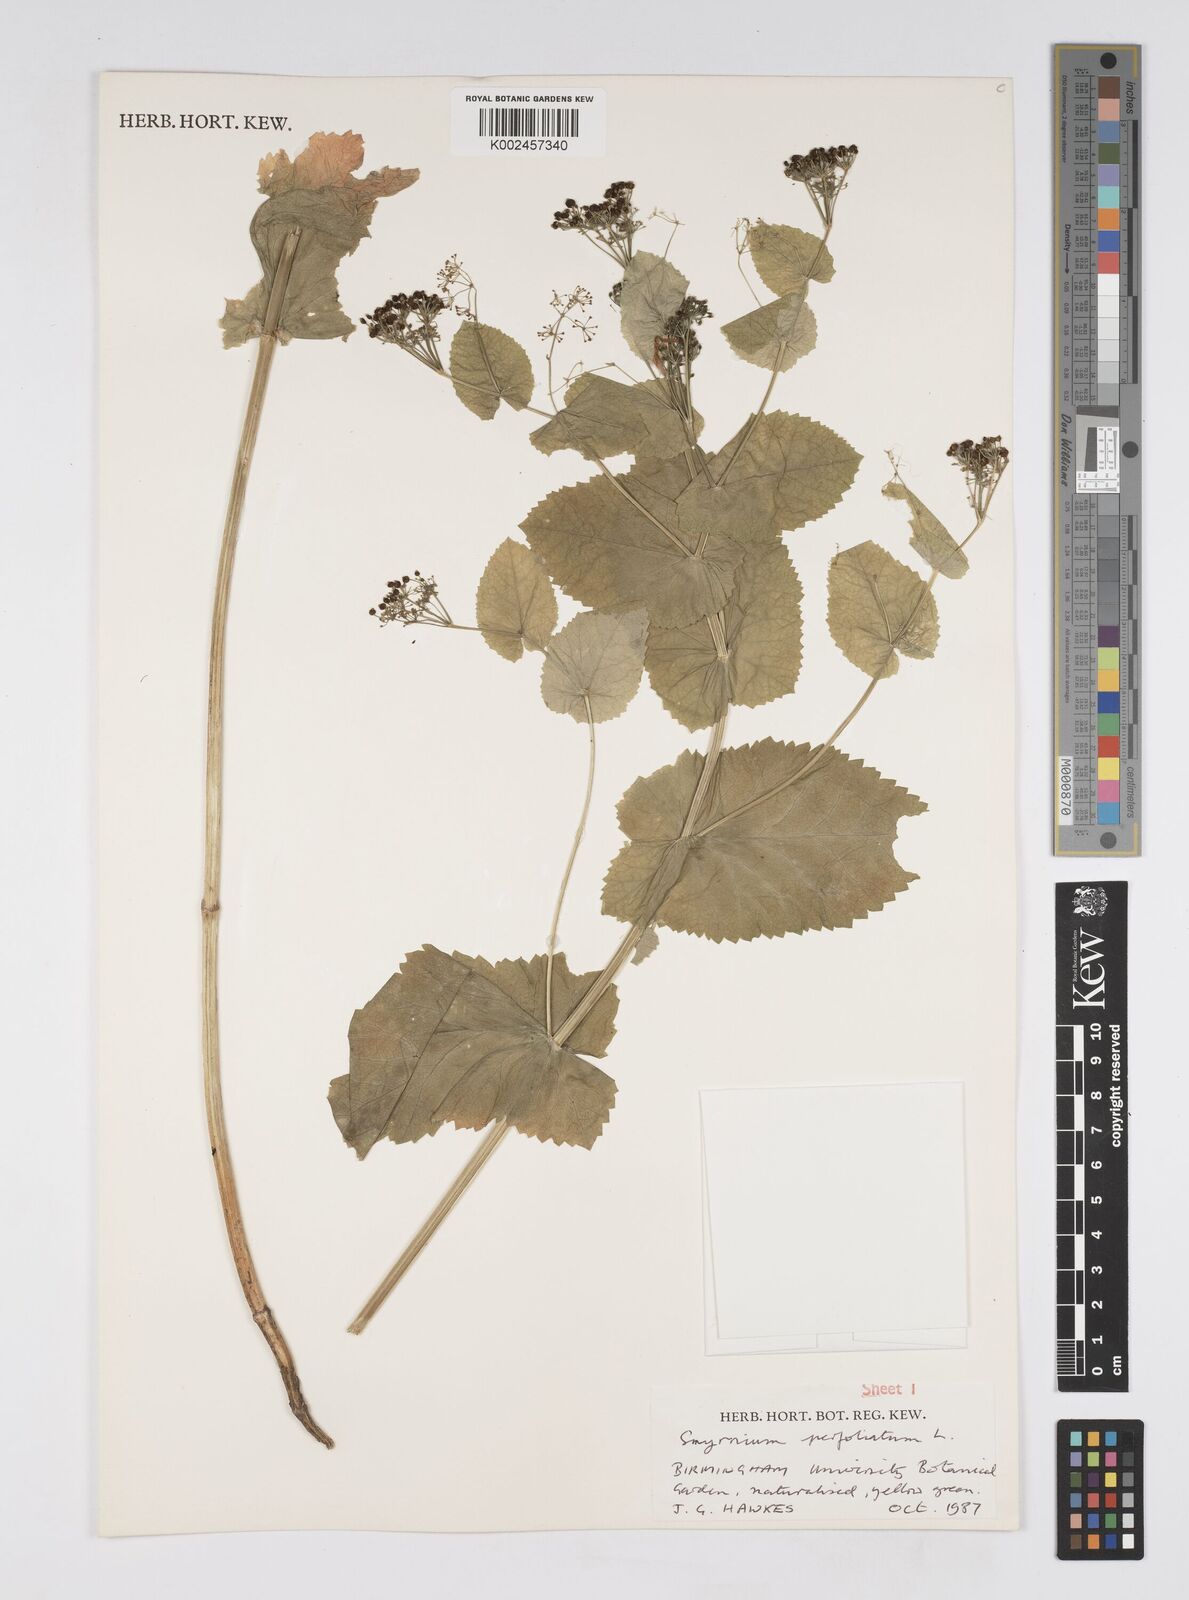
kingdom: Plantae
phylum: Tracheophyta
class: Magnoliopsida
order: Apiales
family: Apiaceae
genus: Smyrnium
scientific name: Smyrnium perfoliatum
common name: Perfoliate alexanders
